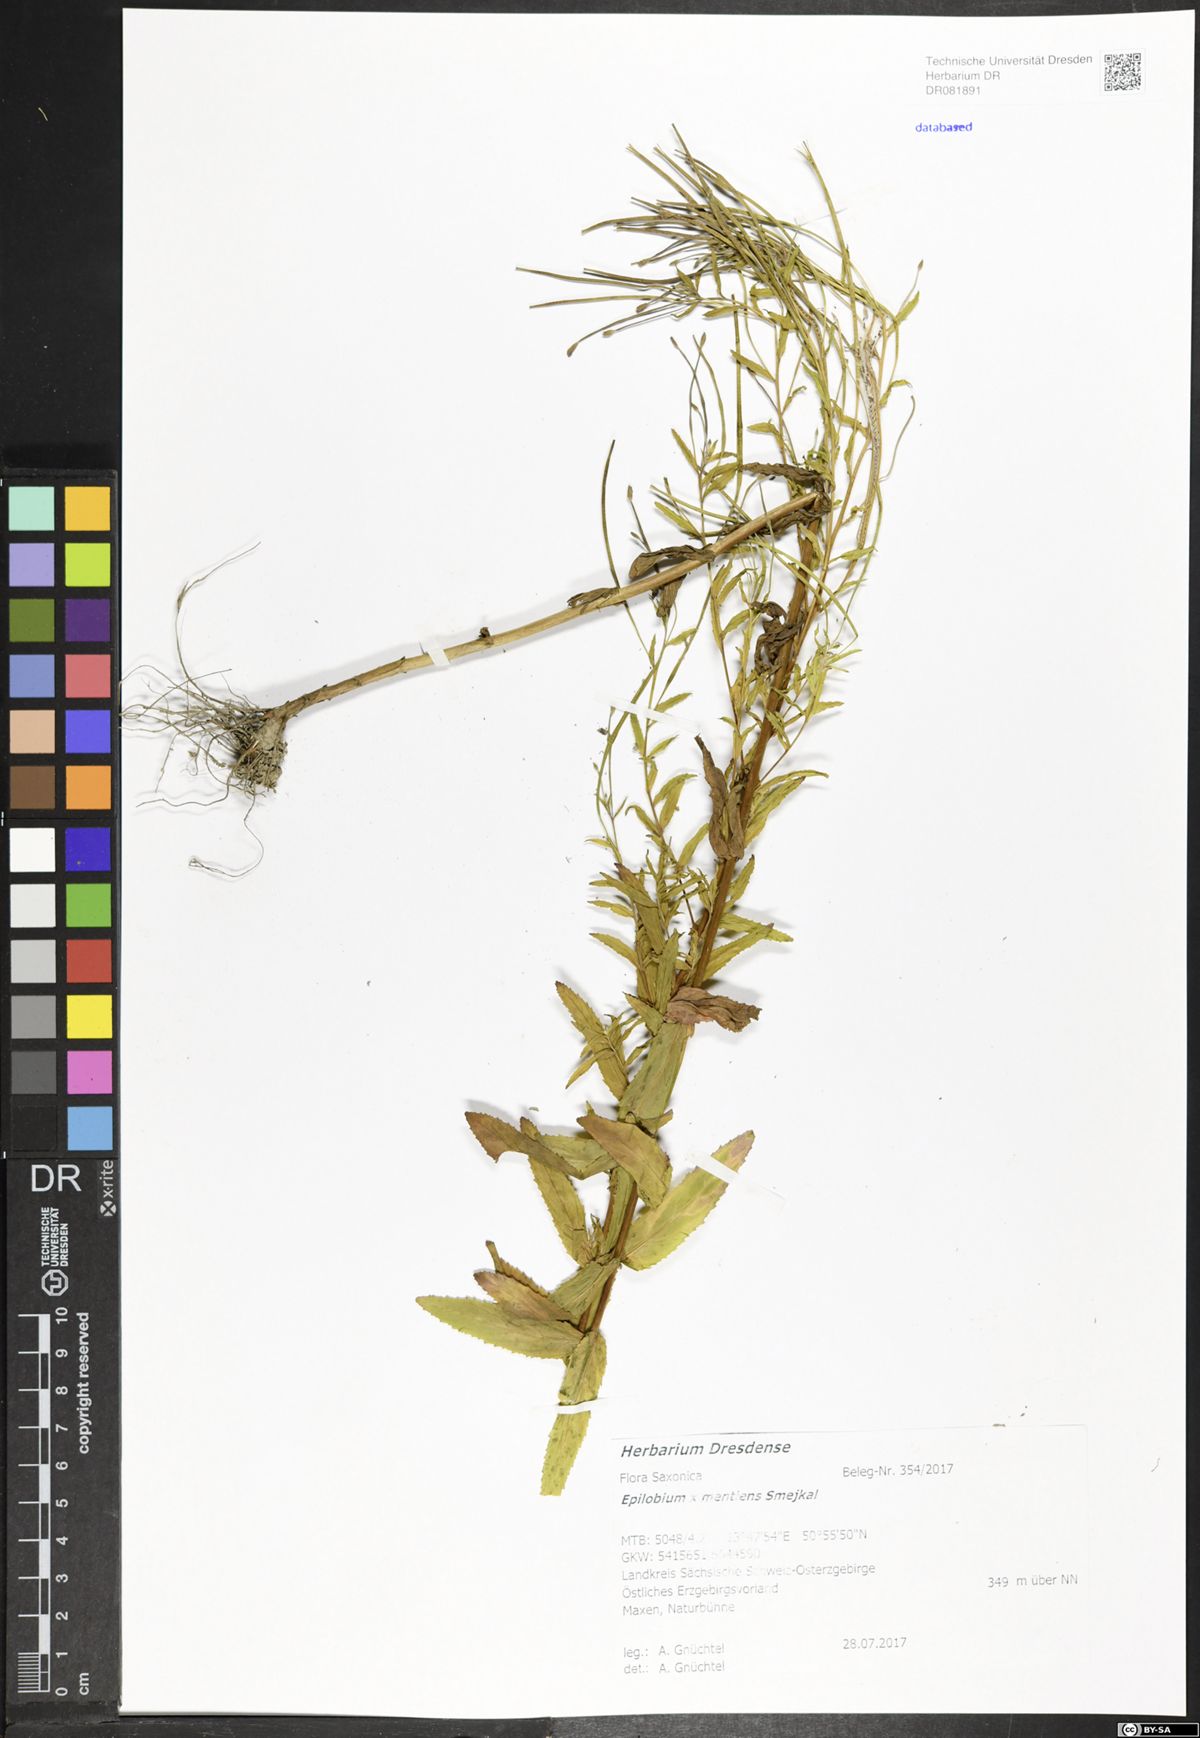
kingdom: Plantae
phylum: Tracheophyta
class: Magnoliopsida
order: Myrtales
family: Onagraceae
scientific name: Onagraceae
